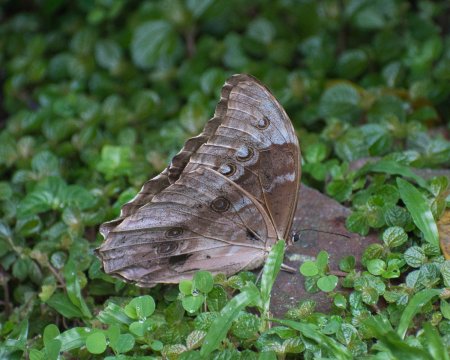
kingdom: Animalia
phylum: Arthropoda
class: Insecta
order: Lepidoptera
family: Nymphalidae
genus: Morpho
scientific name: Morpho menelaus
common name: Menelaus Morpho
